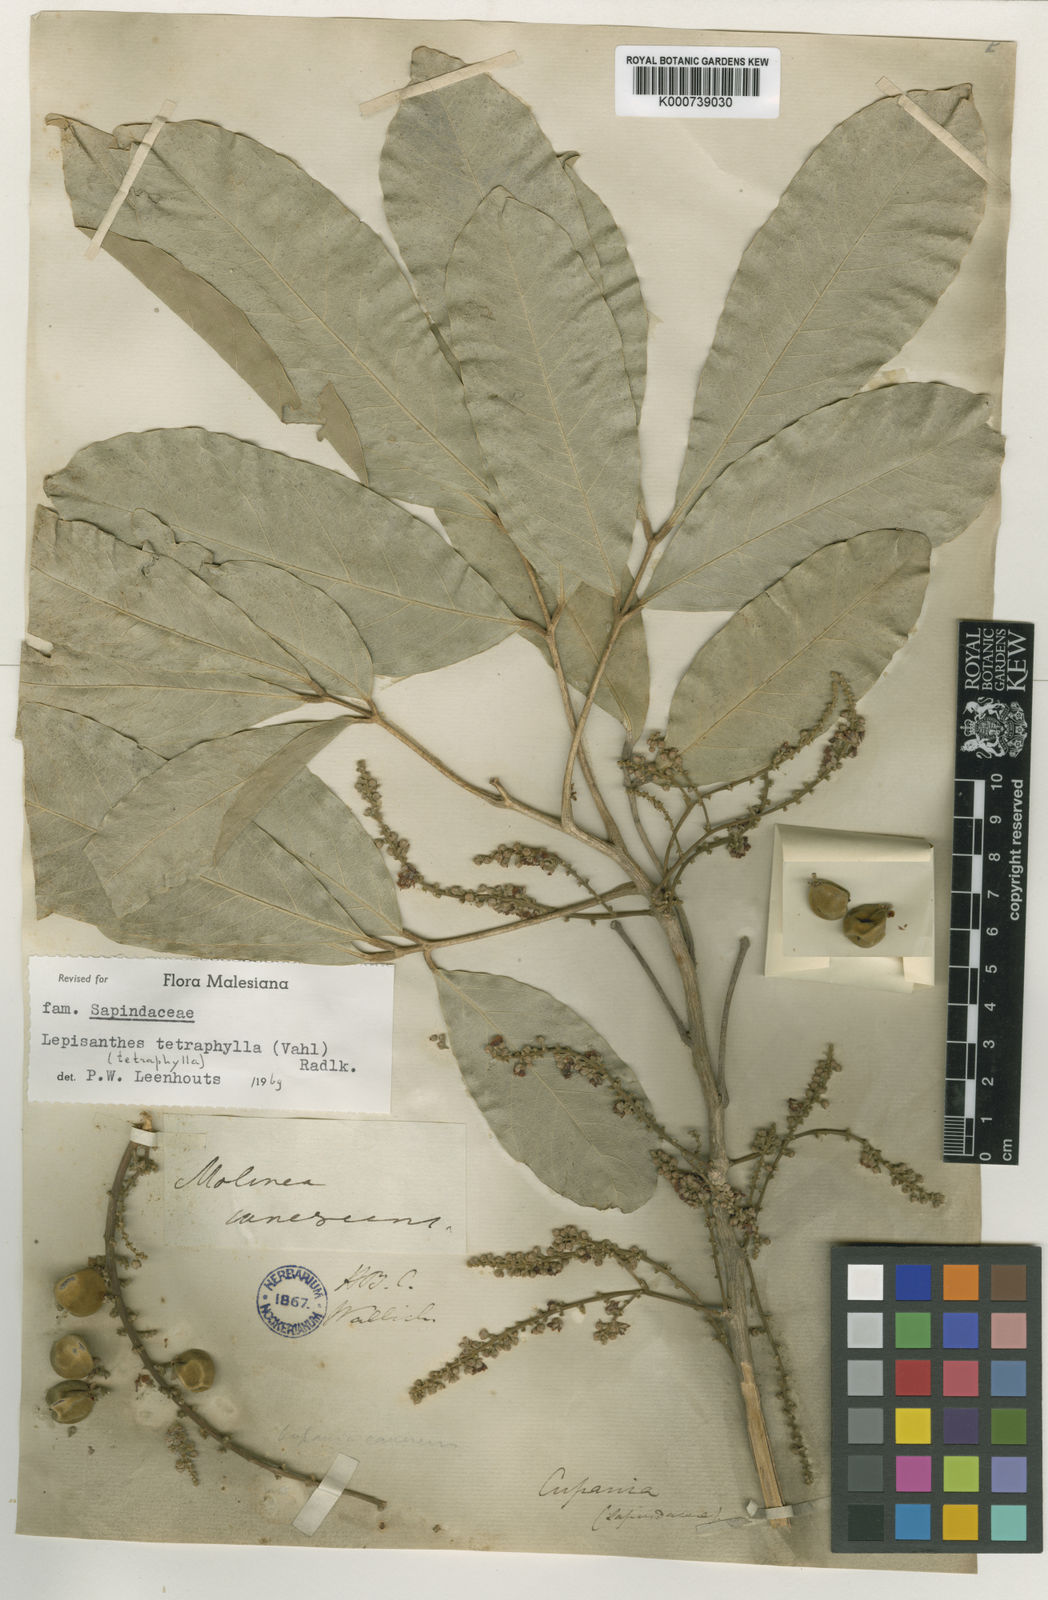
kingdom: Plantae
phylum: Tracheophyta
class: Magnoliopsida
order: Sapindales
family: Sapindaceae
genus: Lepisanthes
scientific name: Lepisanthes tetraphylla
